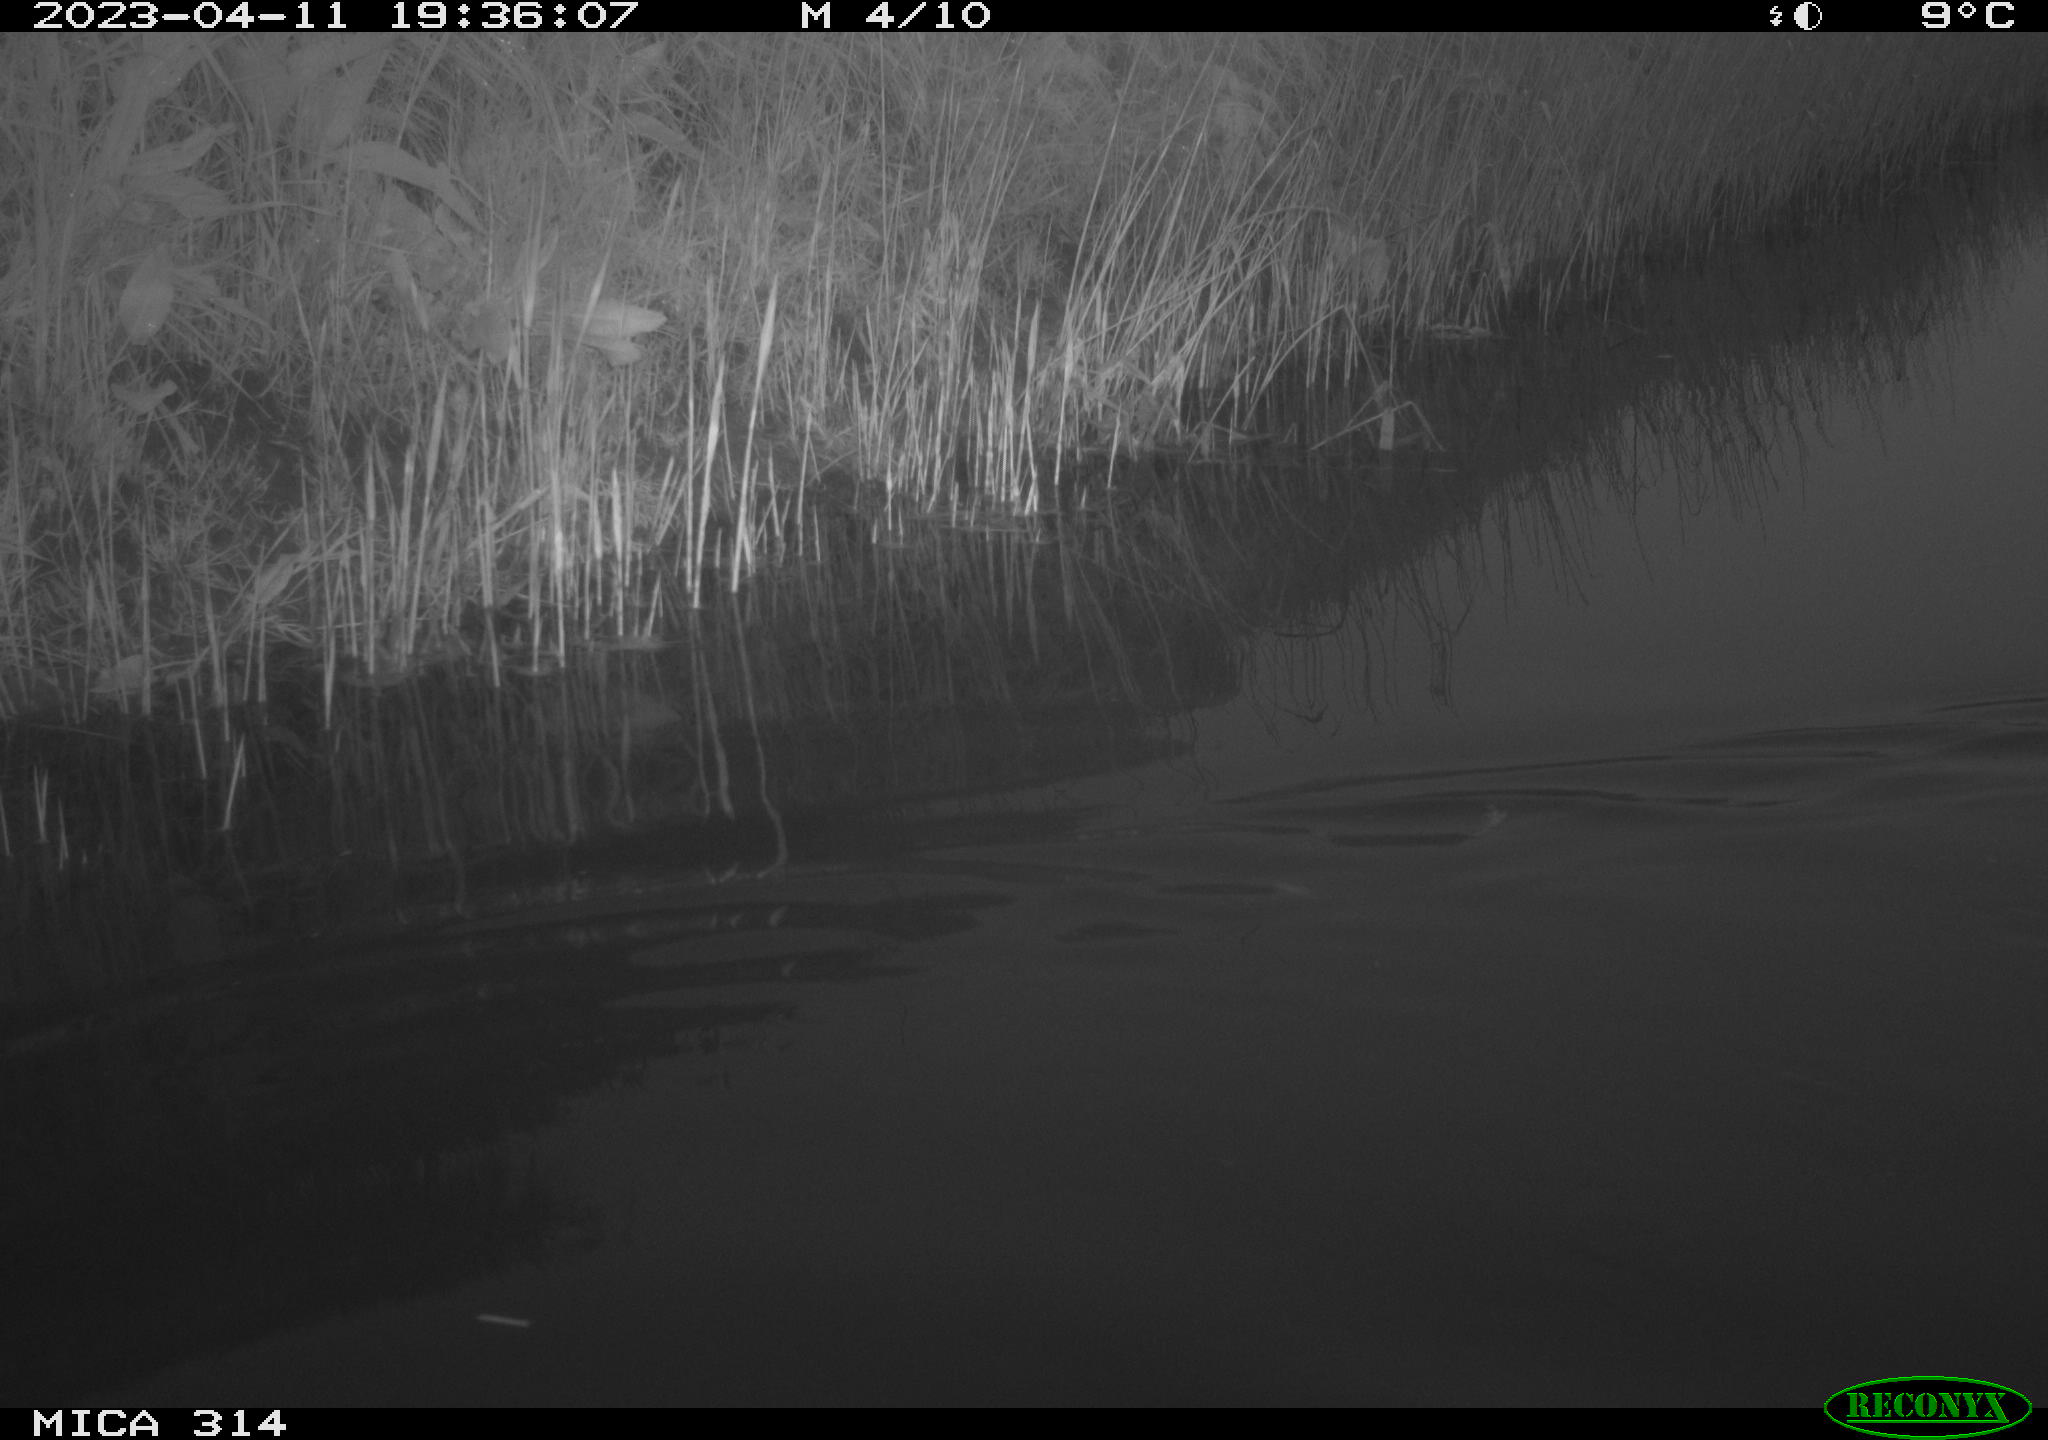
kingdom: Animalia
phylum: Chordata
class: Aves
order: Anseriformes
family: Anatidae
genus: Anas
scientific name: Anas
